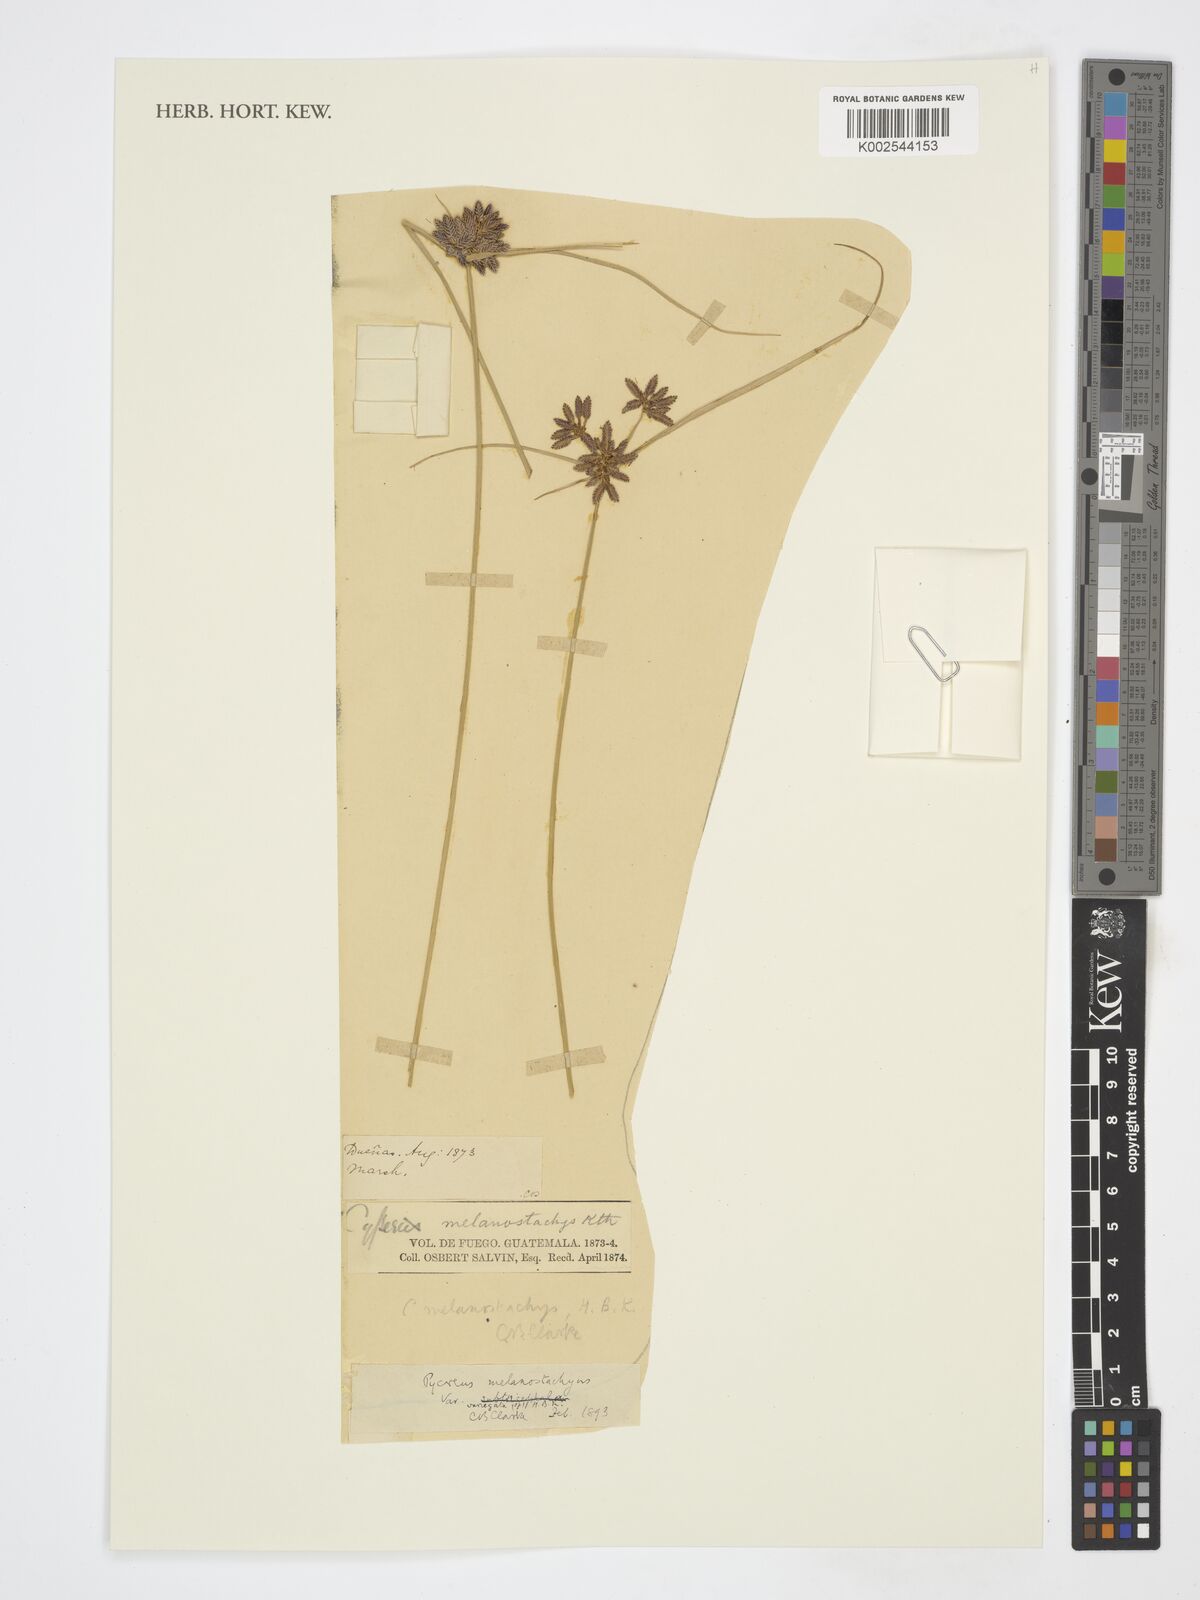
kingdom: Plantae
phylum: Tracheophyta
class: Liliopsida
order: Poales
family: Cyperaceae
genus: Cyperus
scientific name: Cyperus
